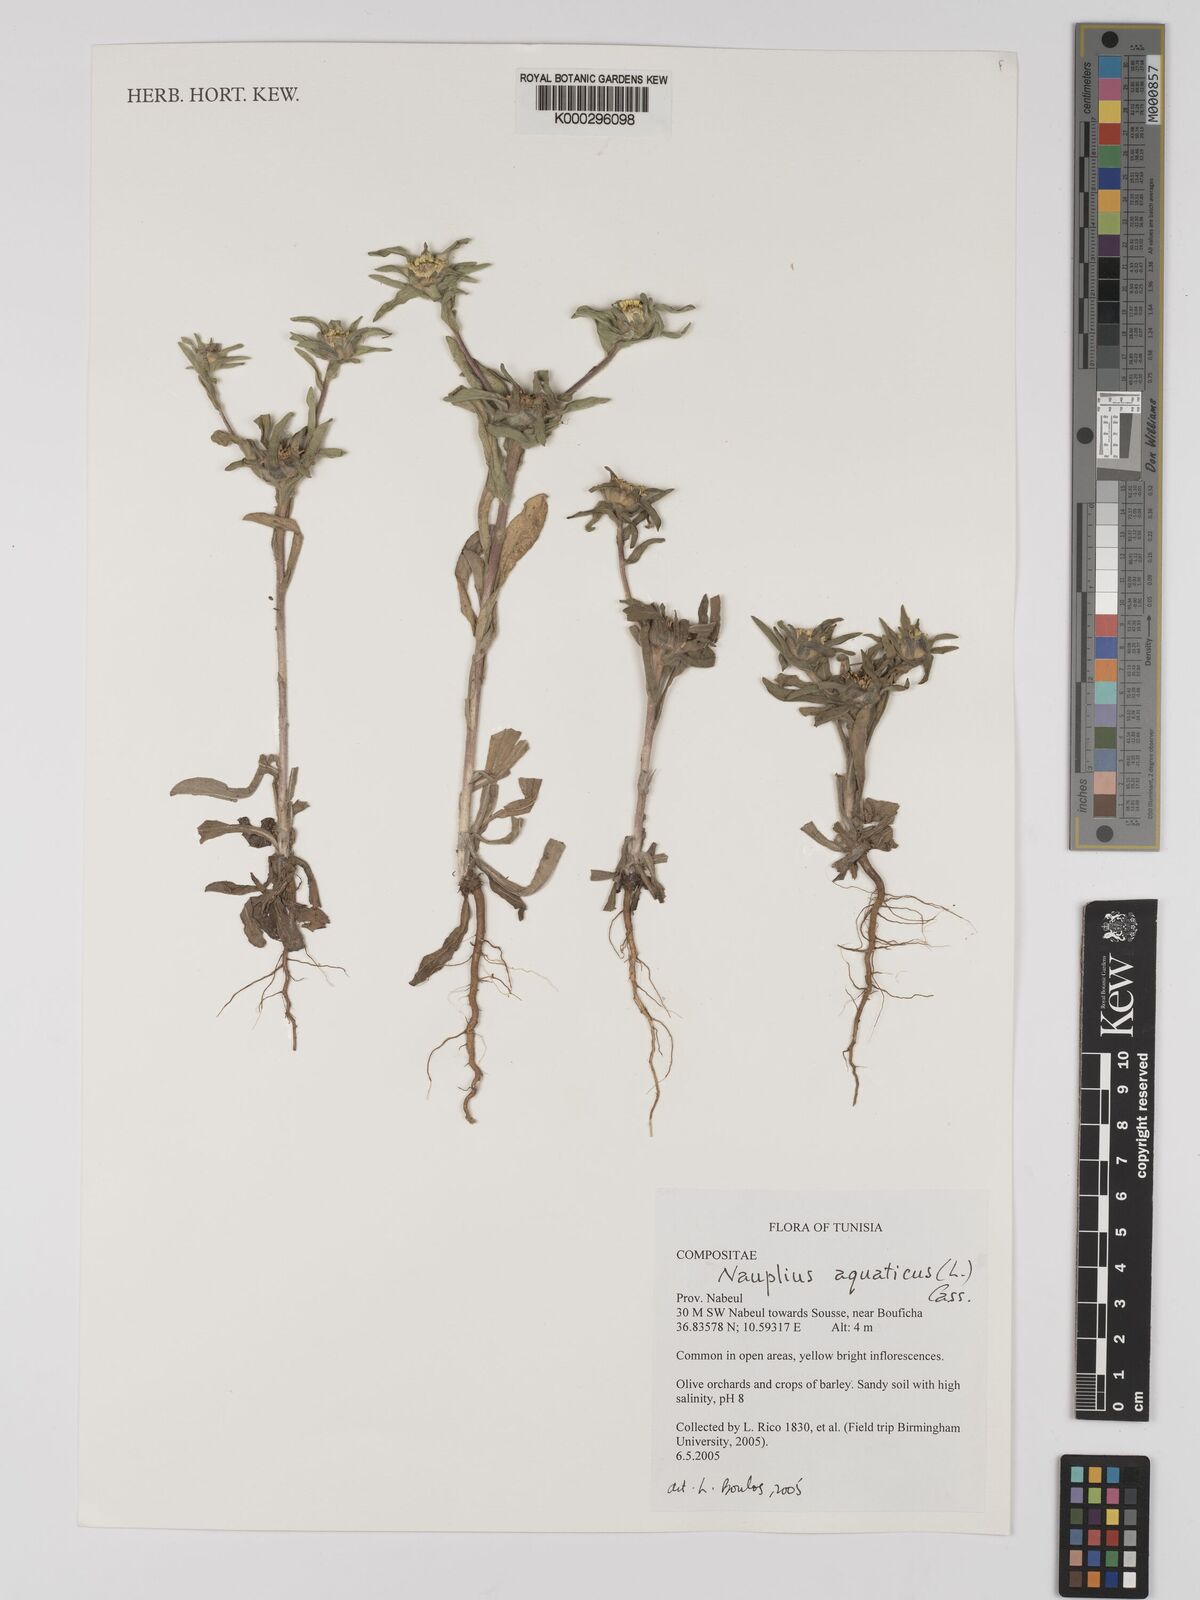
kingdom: Plantae
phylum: Tracheophyta
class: Magnoliopsida
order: Asterales
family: Asteraceae
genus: Asteriscus
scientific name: Asteriscus aquaticus
